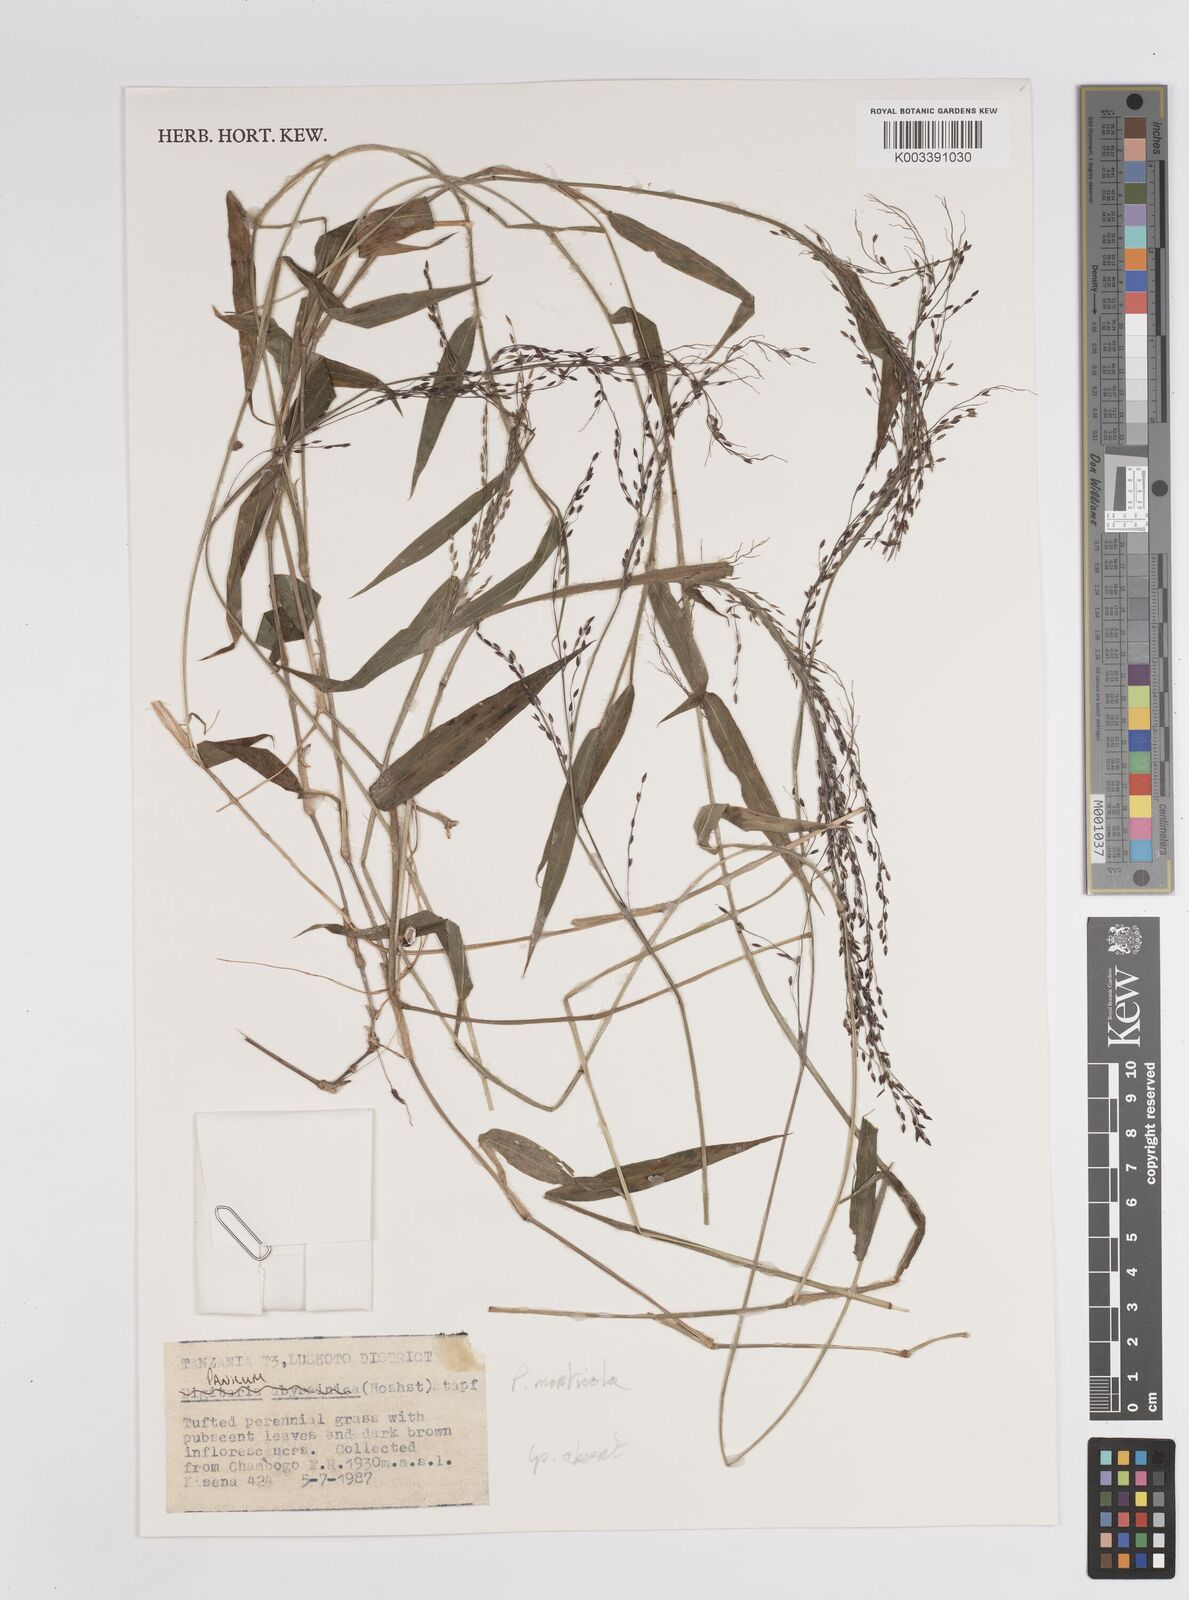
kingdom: Plantae
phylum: Tracheophyta
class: Liliopsida
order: Poales
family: Poaceae
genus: Panicum
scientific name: Panicum monticola
